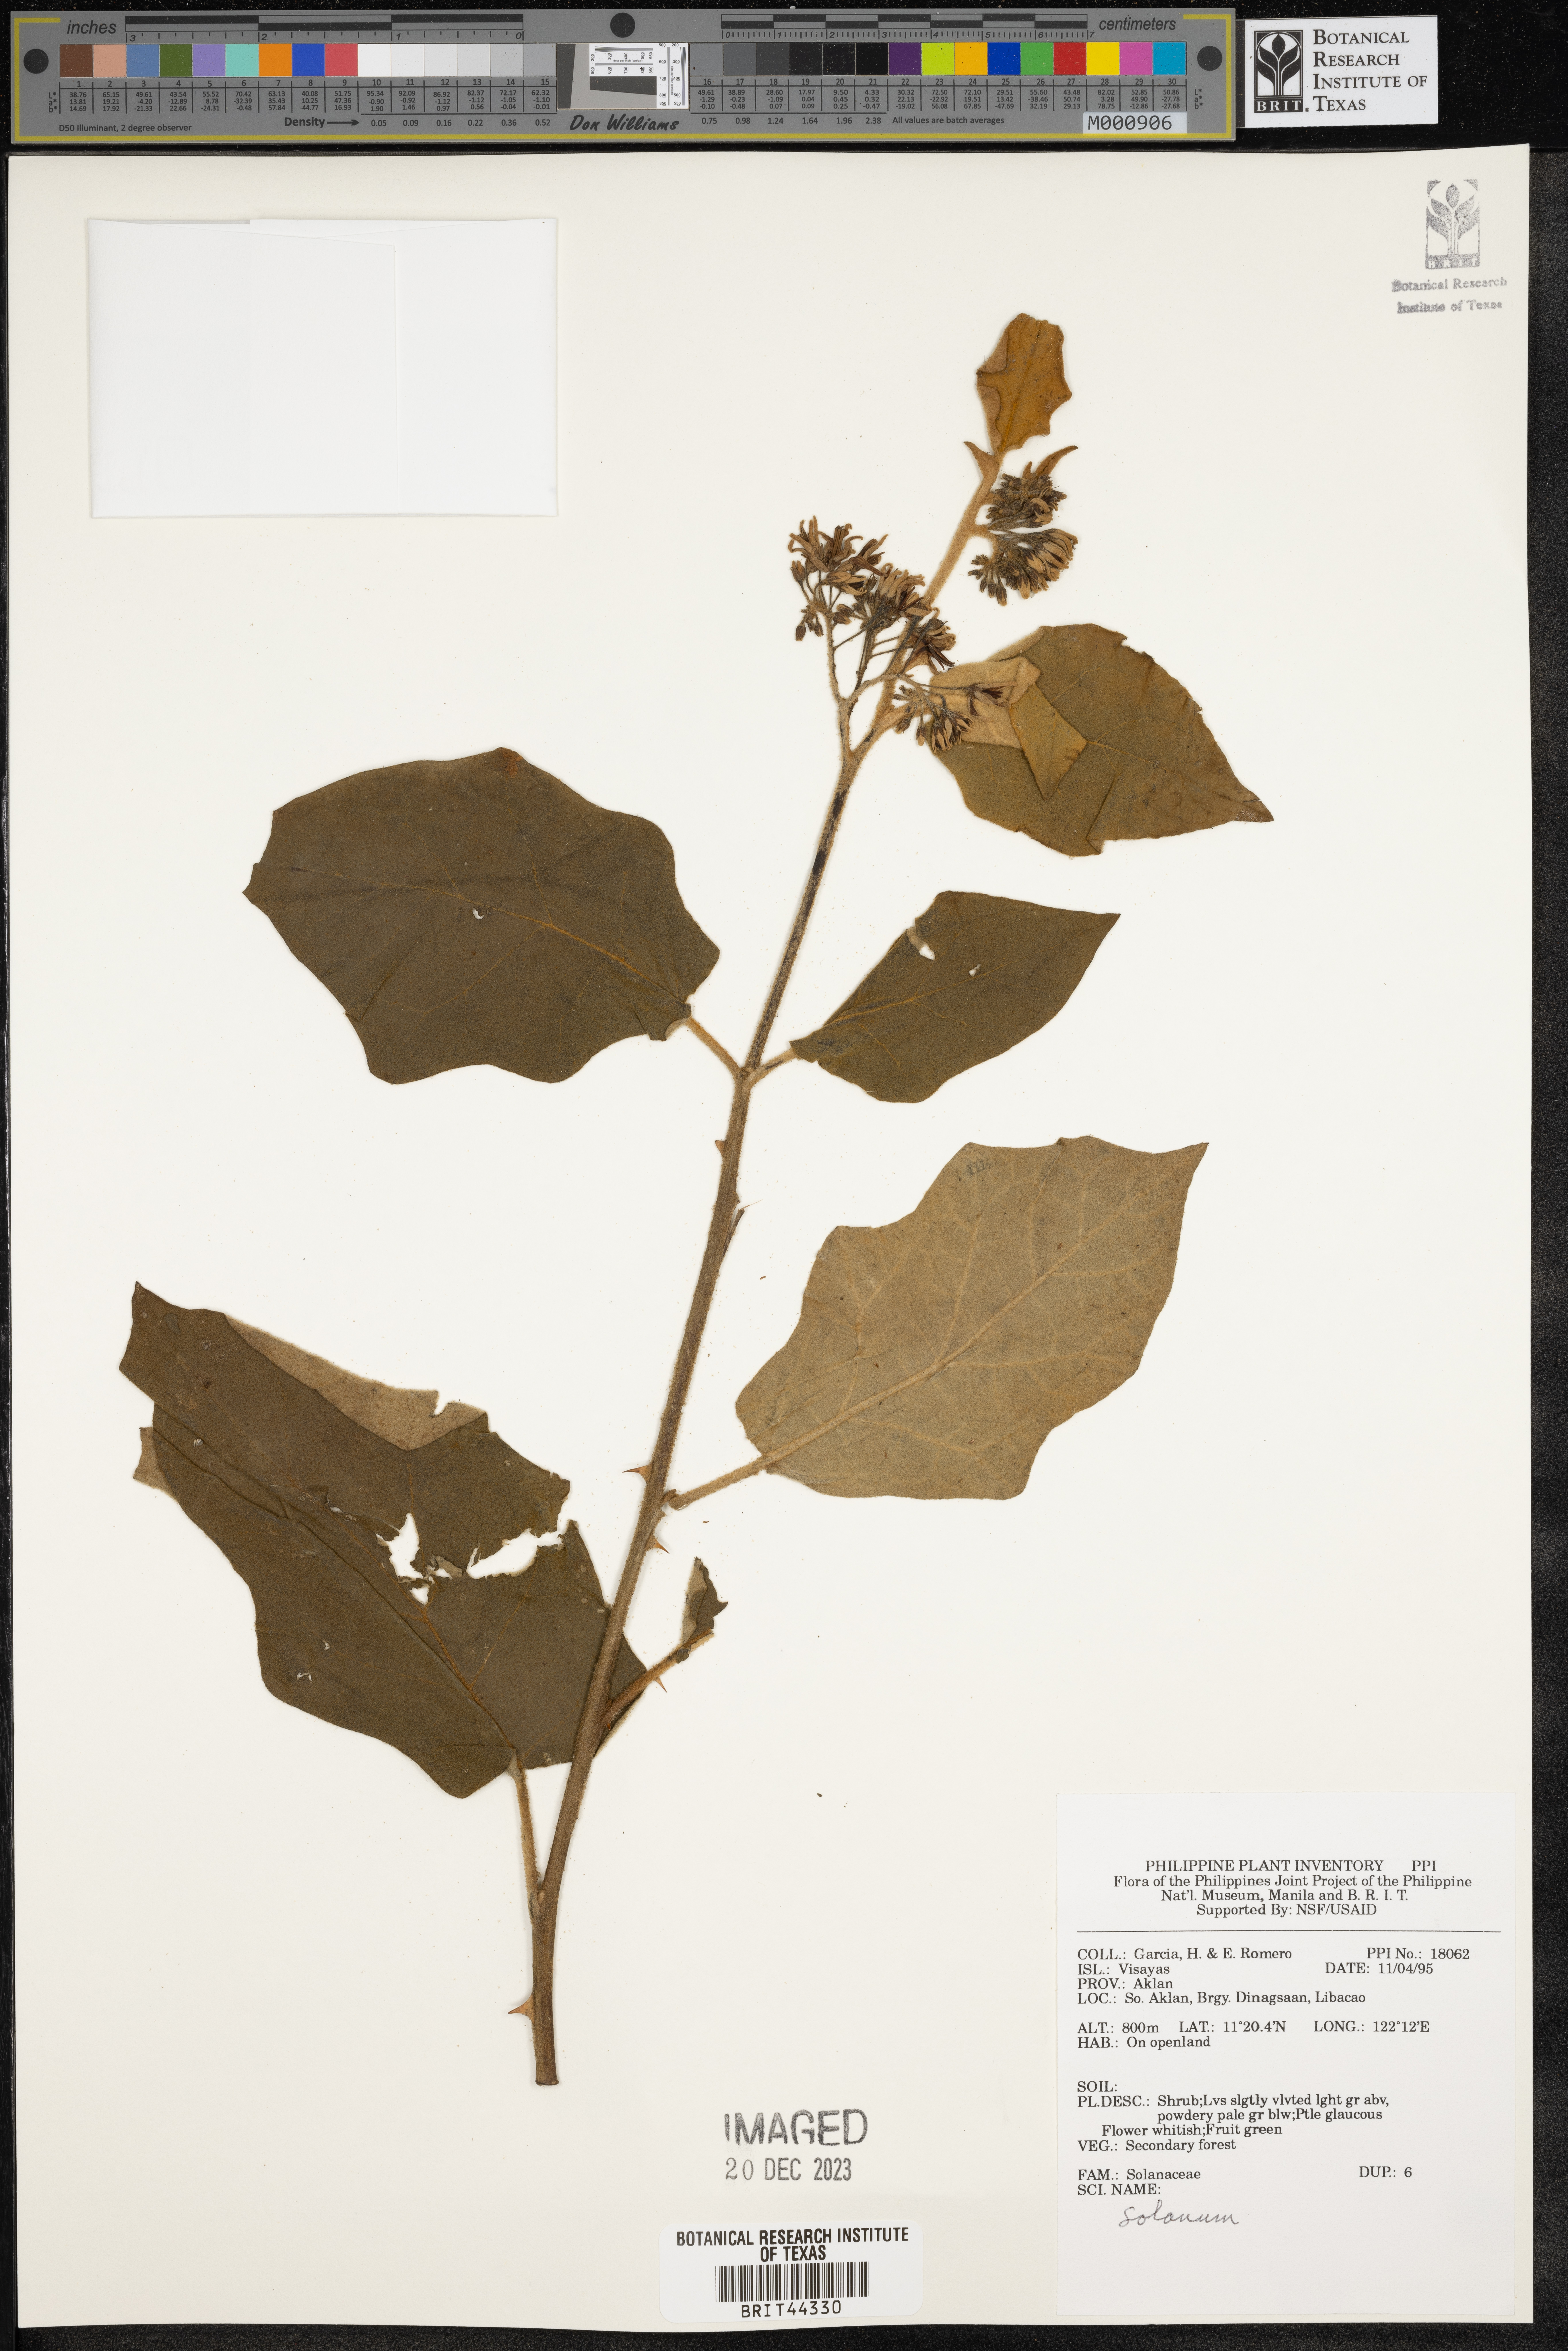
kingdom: Plantae
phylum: Tracheophyta
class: Magnoliopsida
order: Solanales
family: Solanaceae
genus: Solanum
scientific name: Solanum
